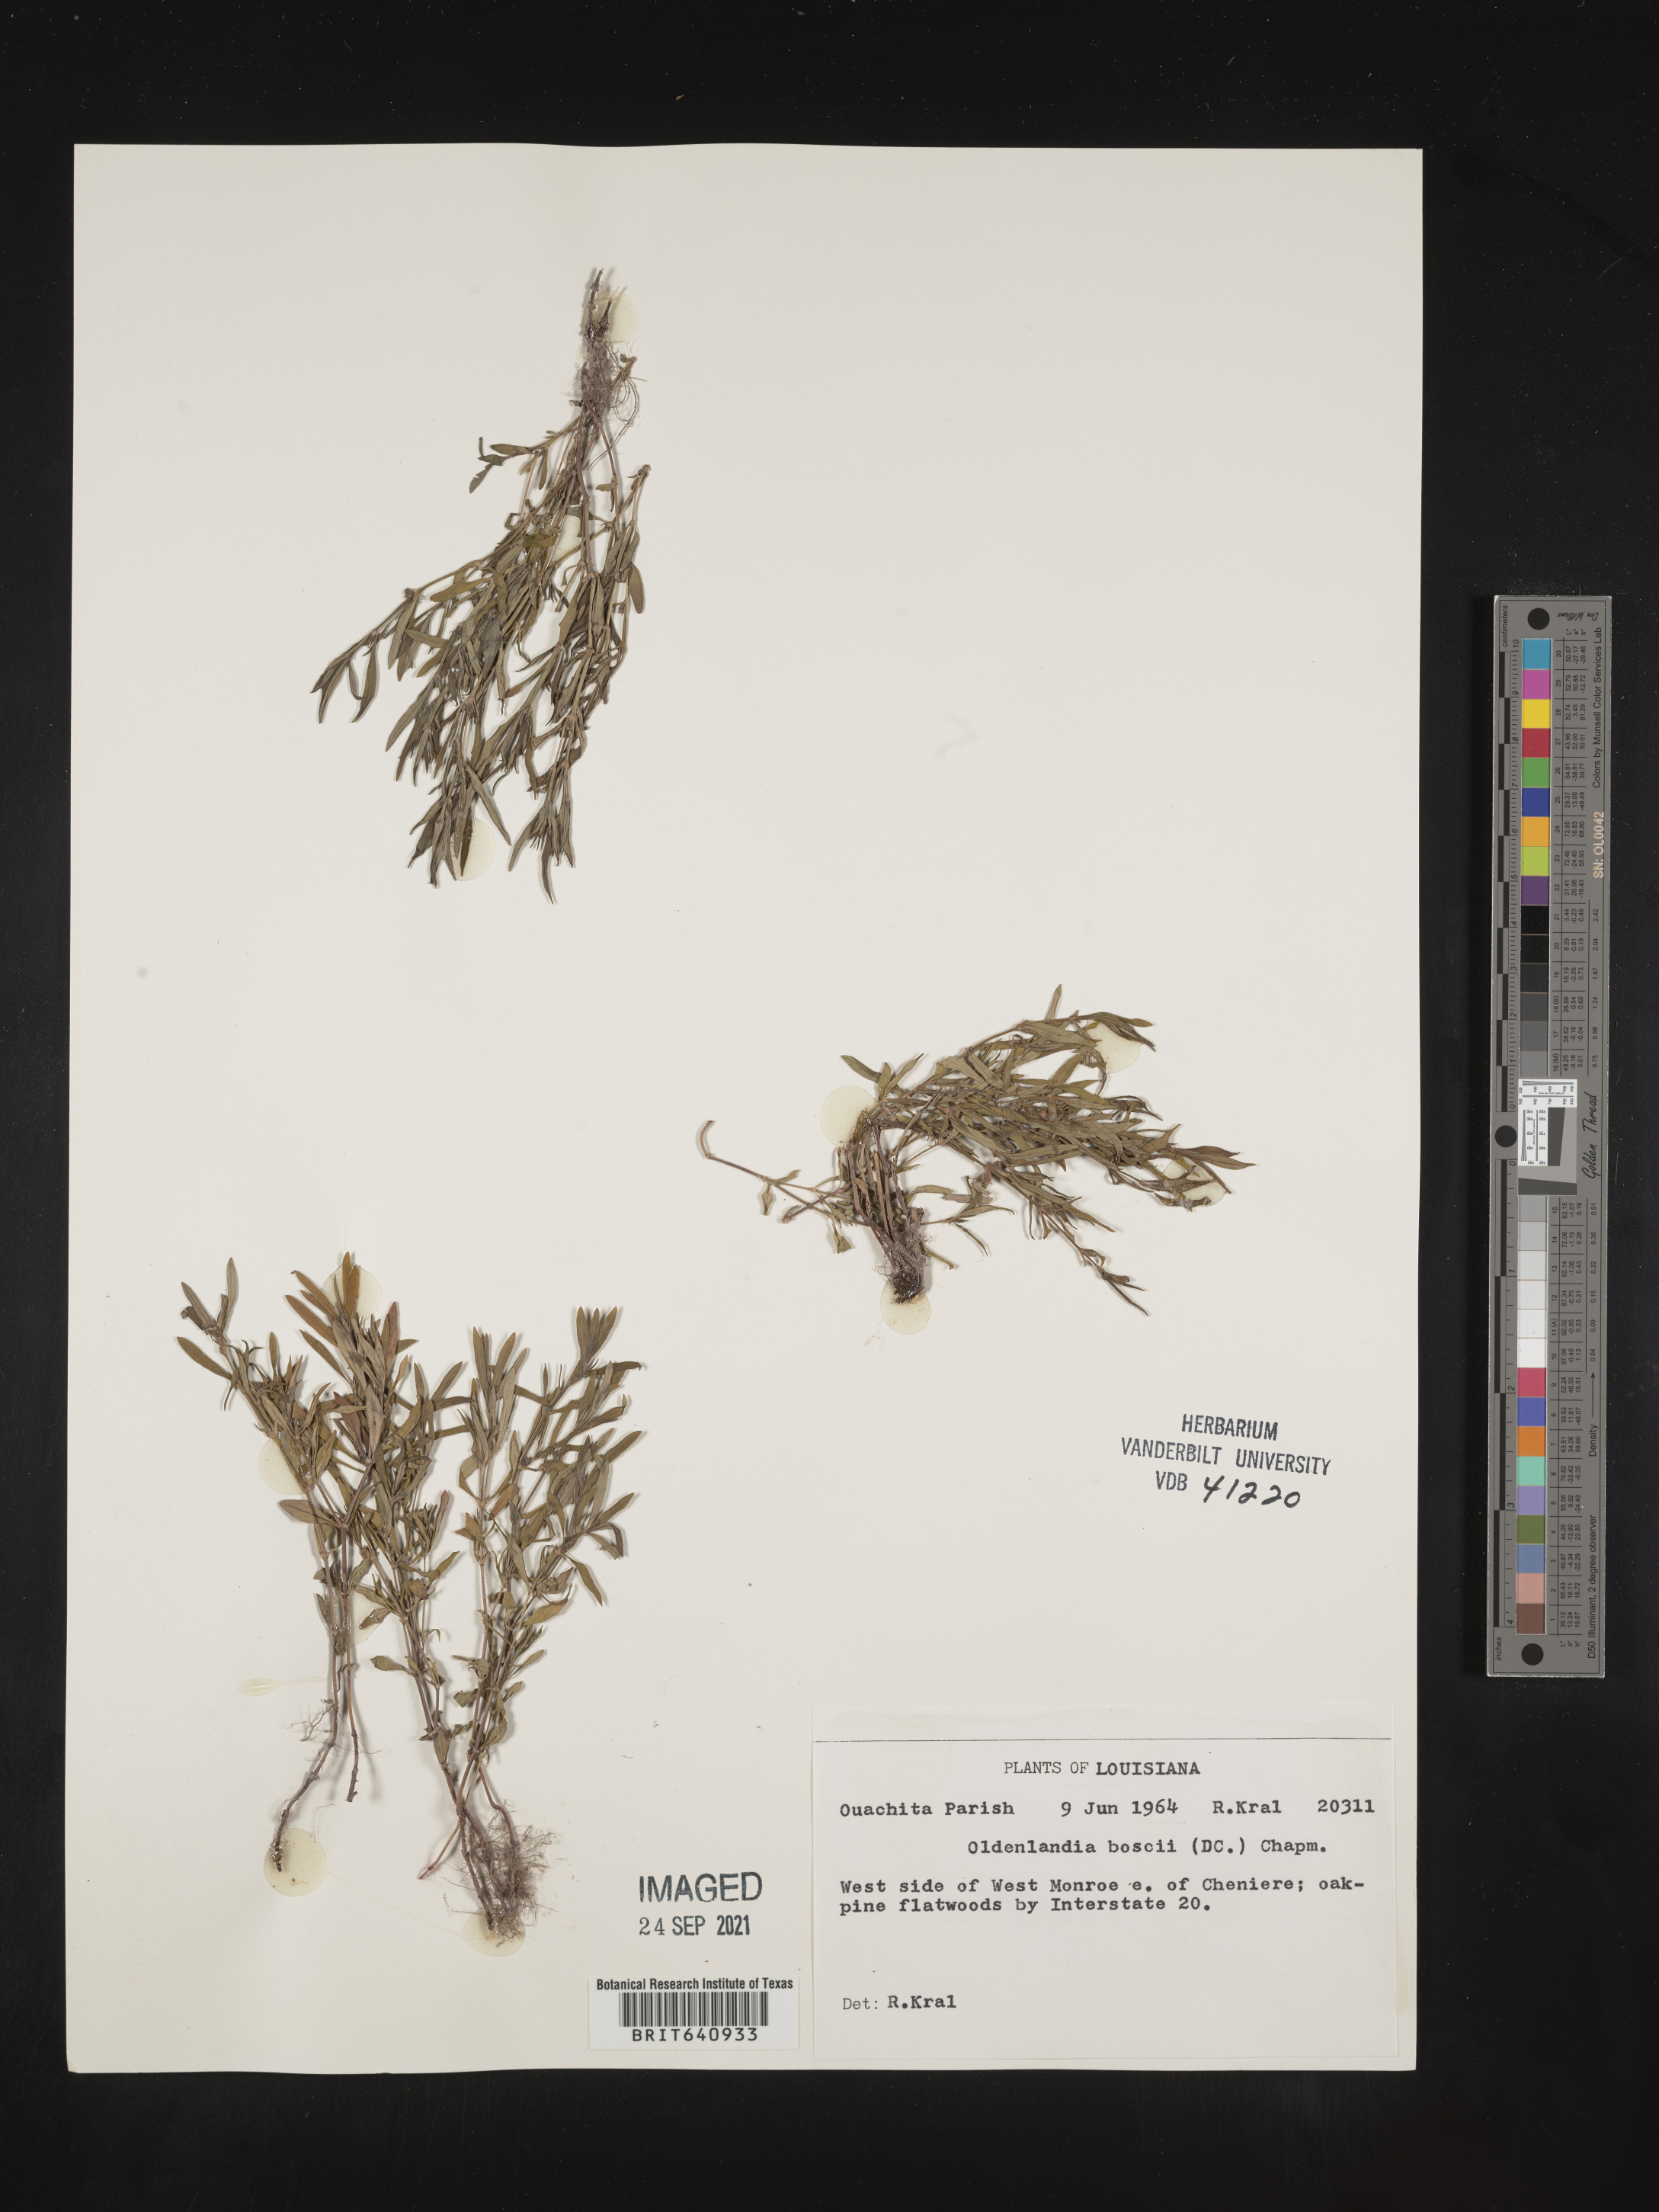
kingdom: Plantae
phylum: Tracheophyta
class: Magnoliopsida
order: Gentianales
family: Rubiaceae
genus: Oldenlandia
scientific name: Oldenlandia boscii
